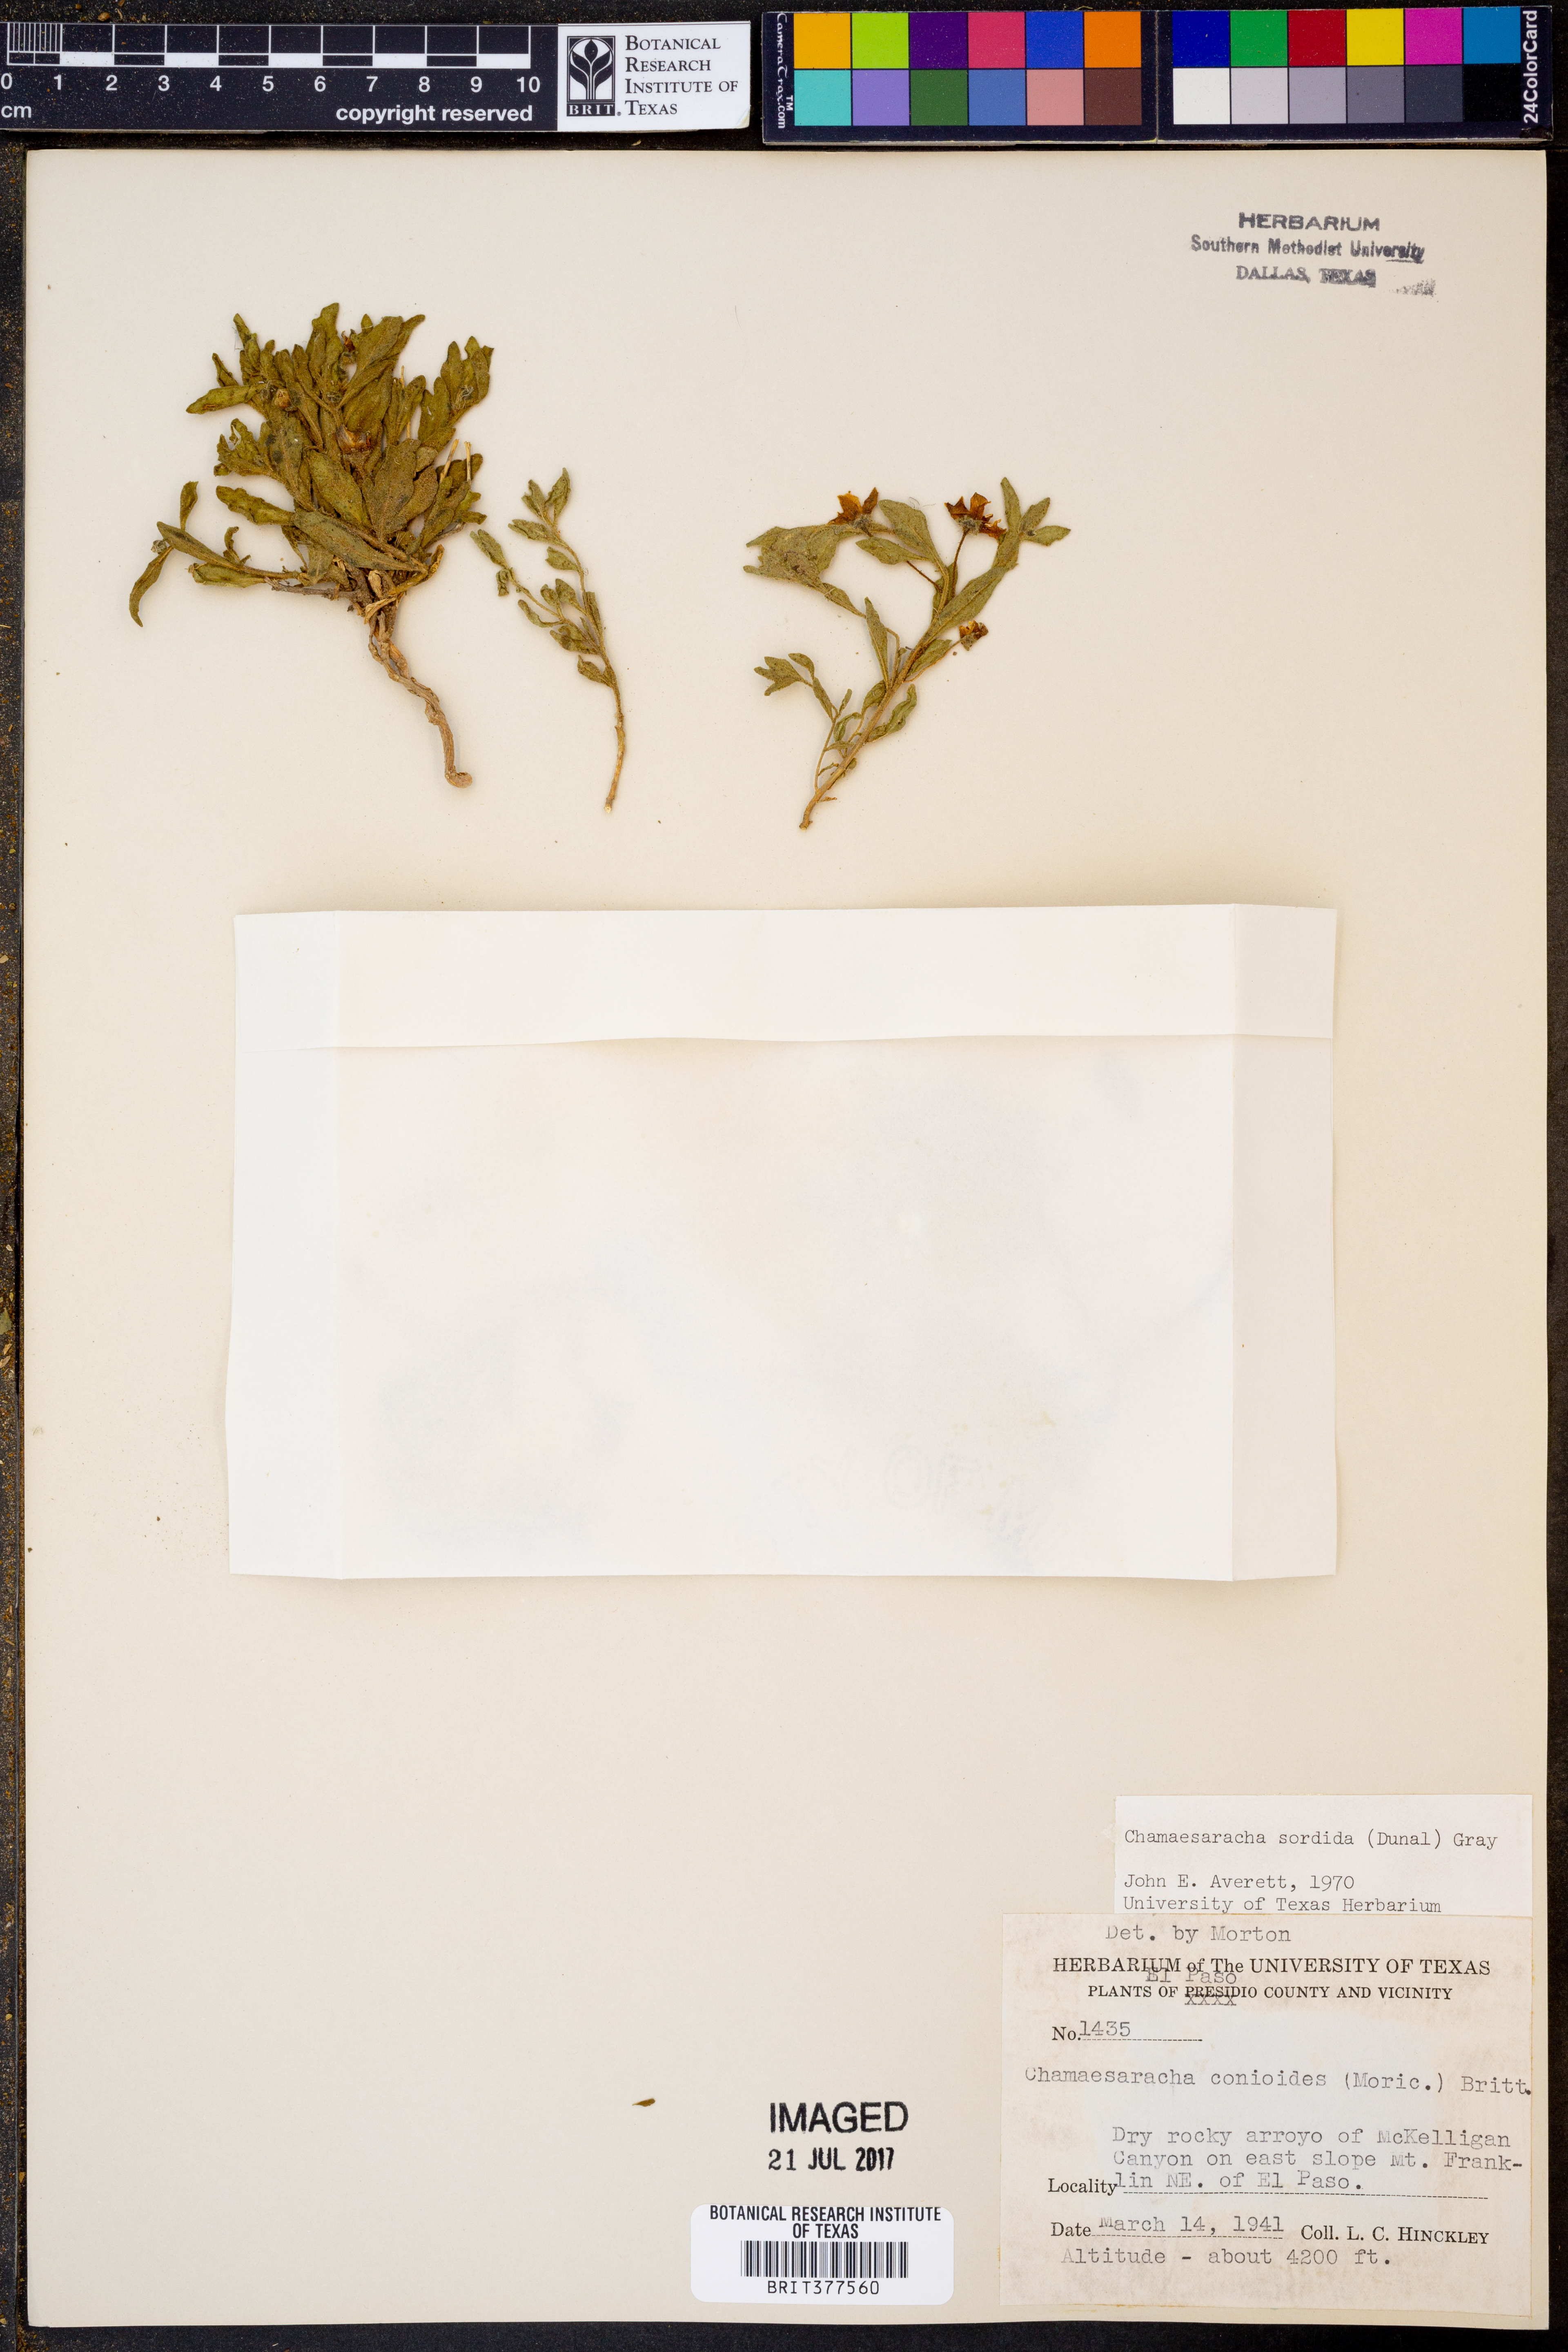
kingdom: Plantae
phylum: Tracheophyta
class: Magnoliopsida
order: Solanales
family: Solanaceae
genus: Chamaesaracha
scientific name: Chamaesaracha sordida
